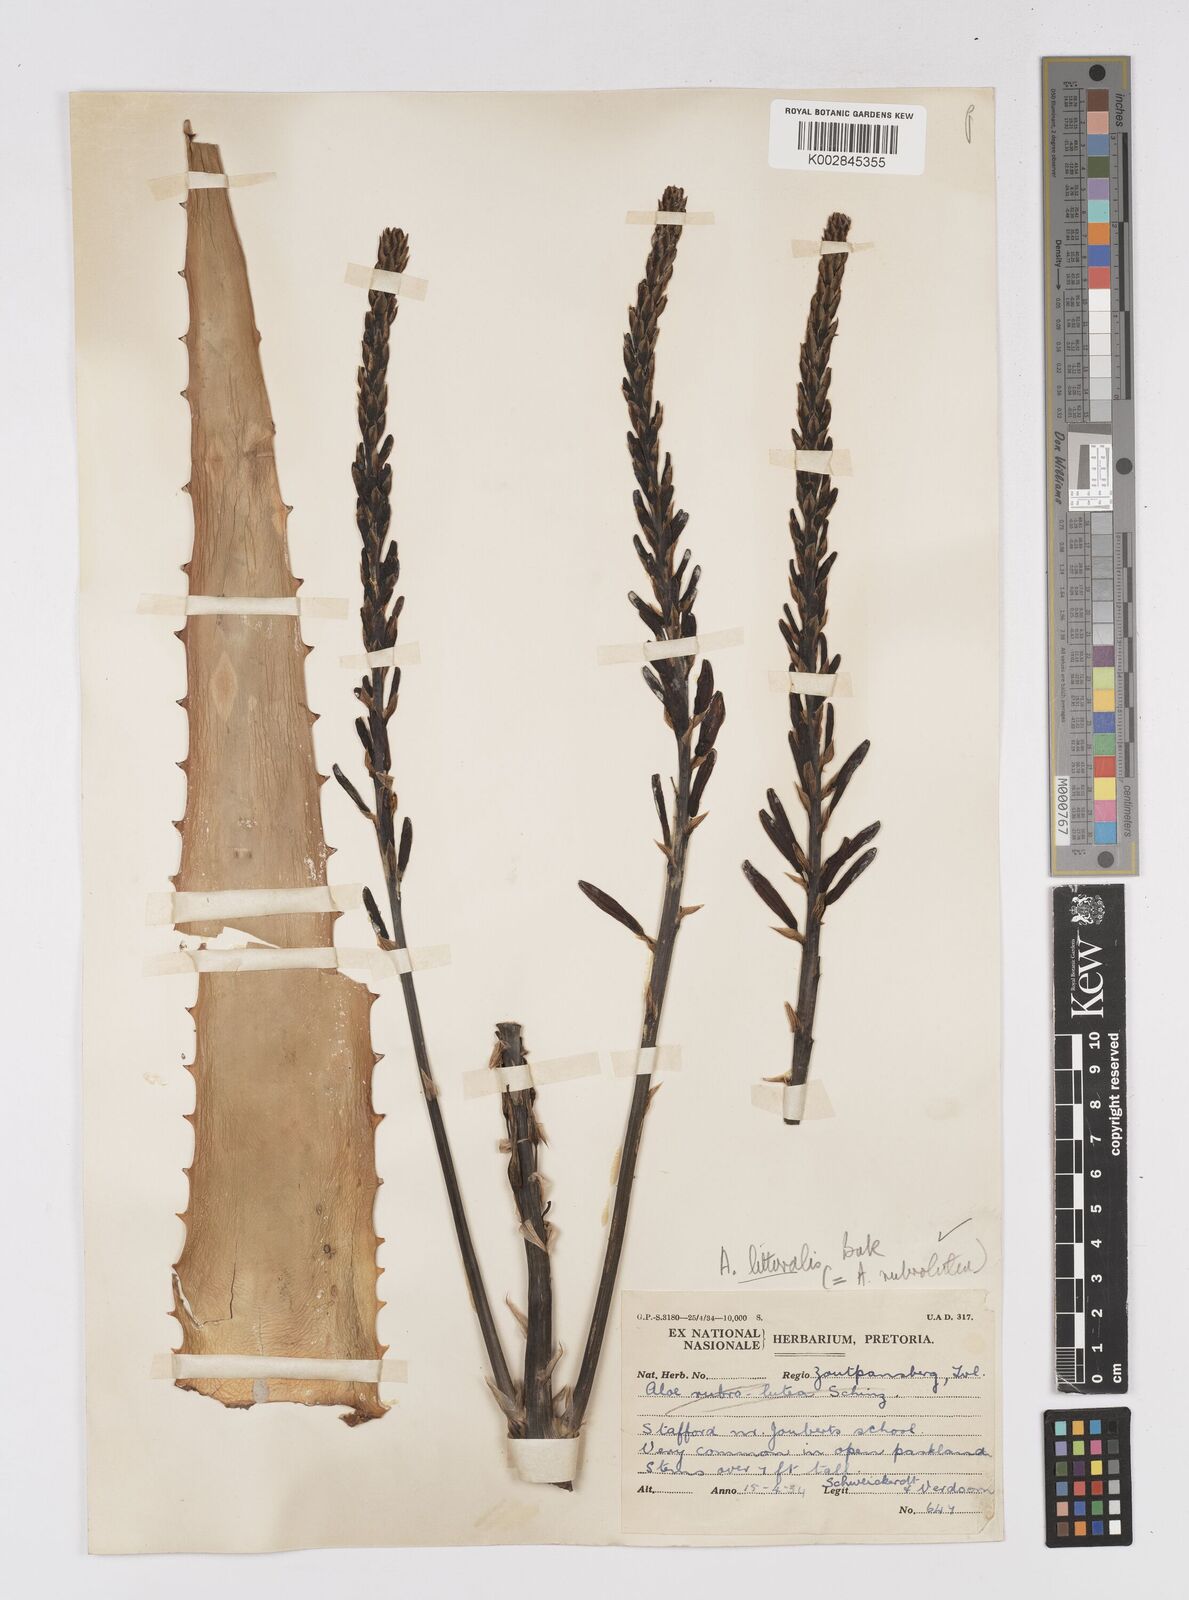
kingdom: Plantae
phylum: Tracheophyta
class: Liliopsida
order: Asparagales
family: Asphodelaceae
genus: Aloe
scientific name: Aloe littoralis
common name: Luanda tree aloe
